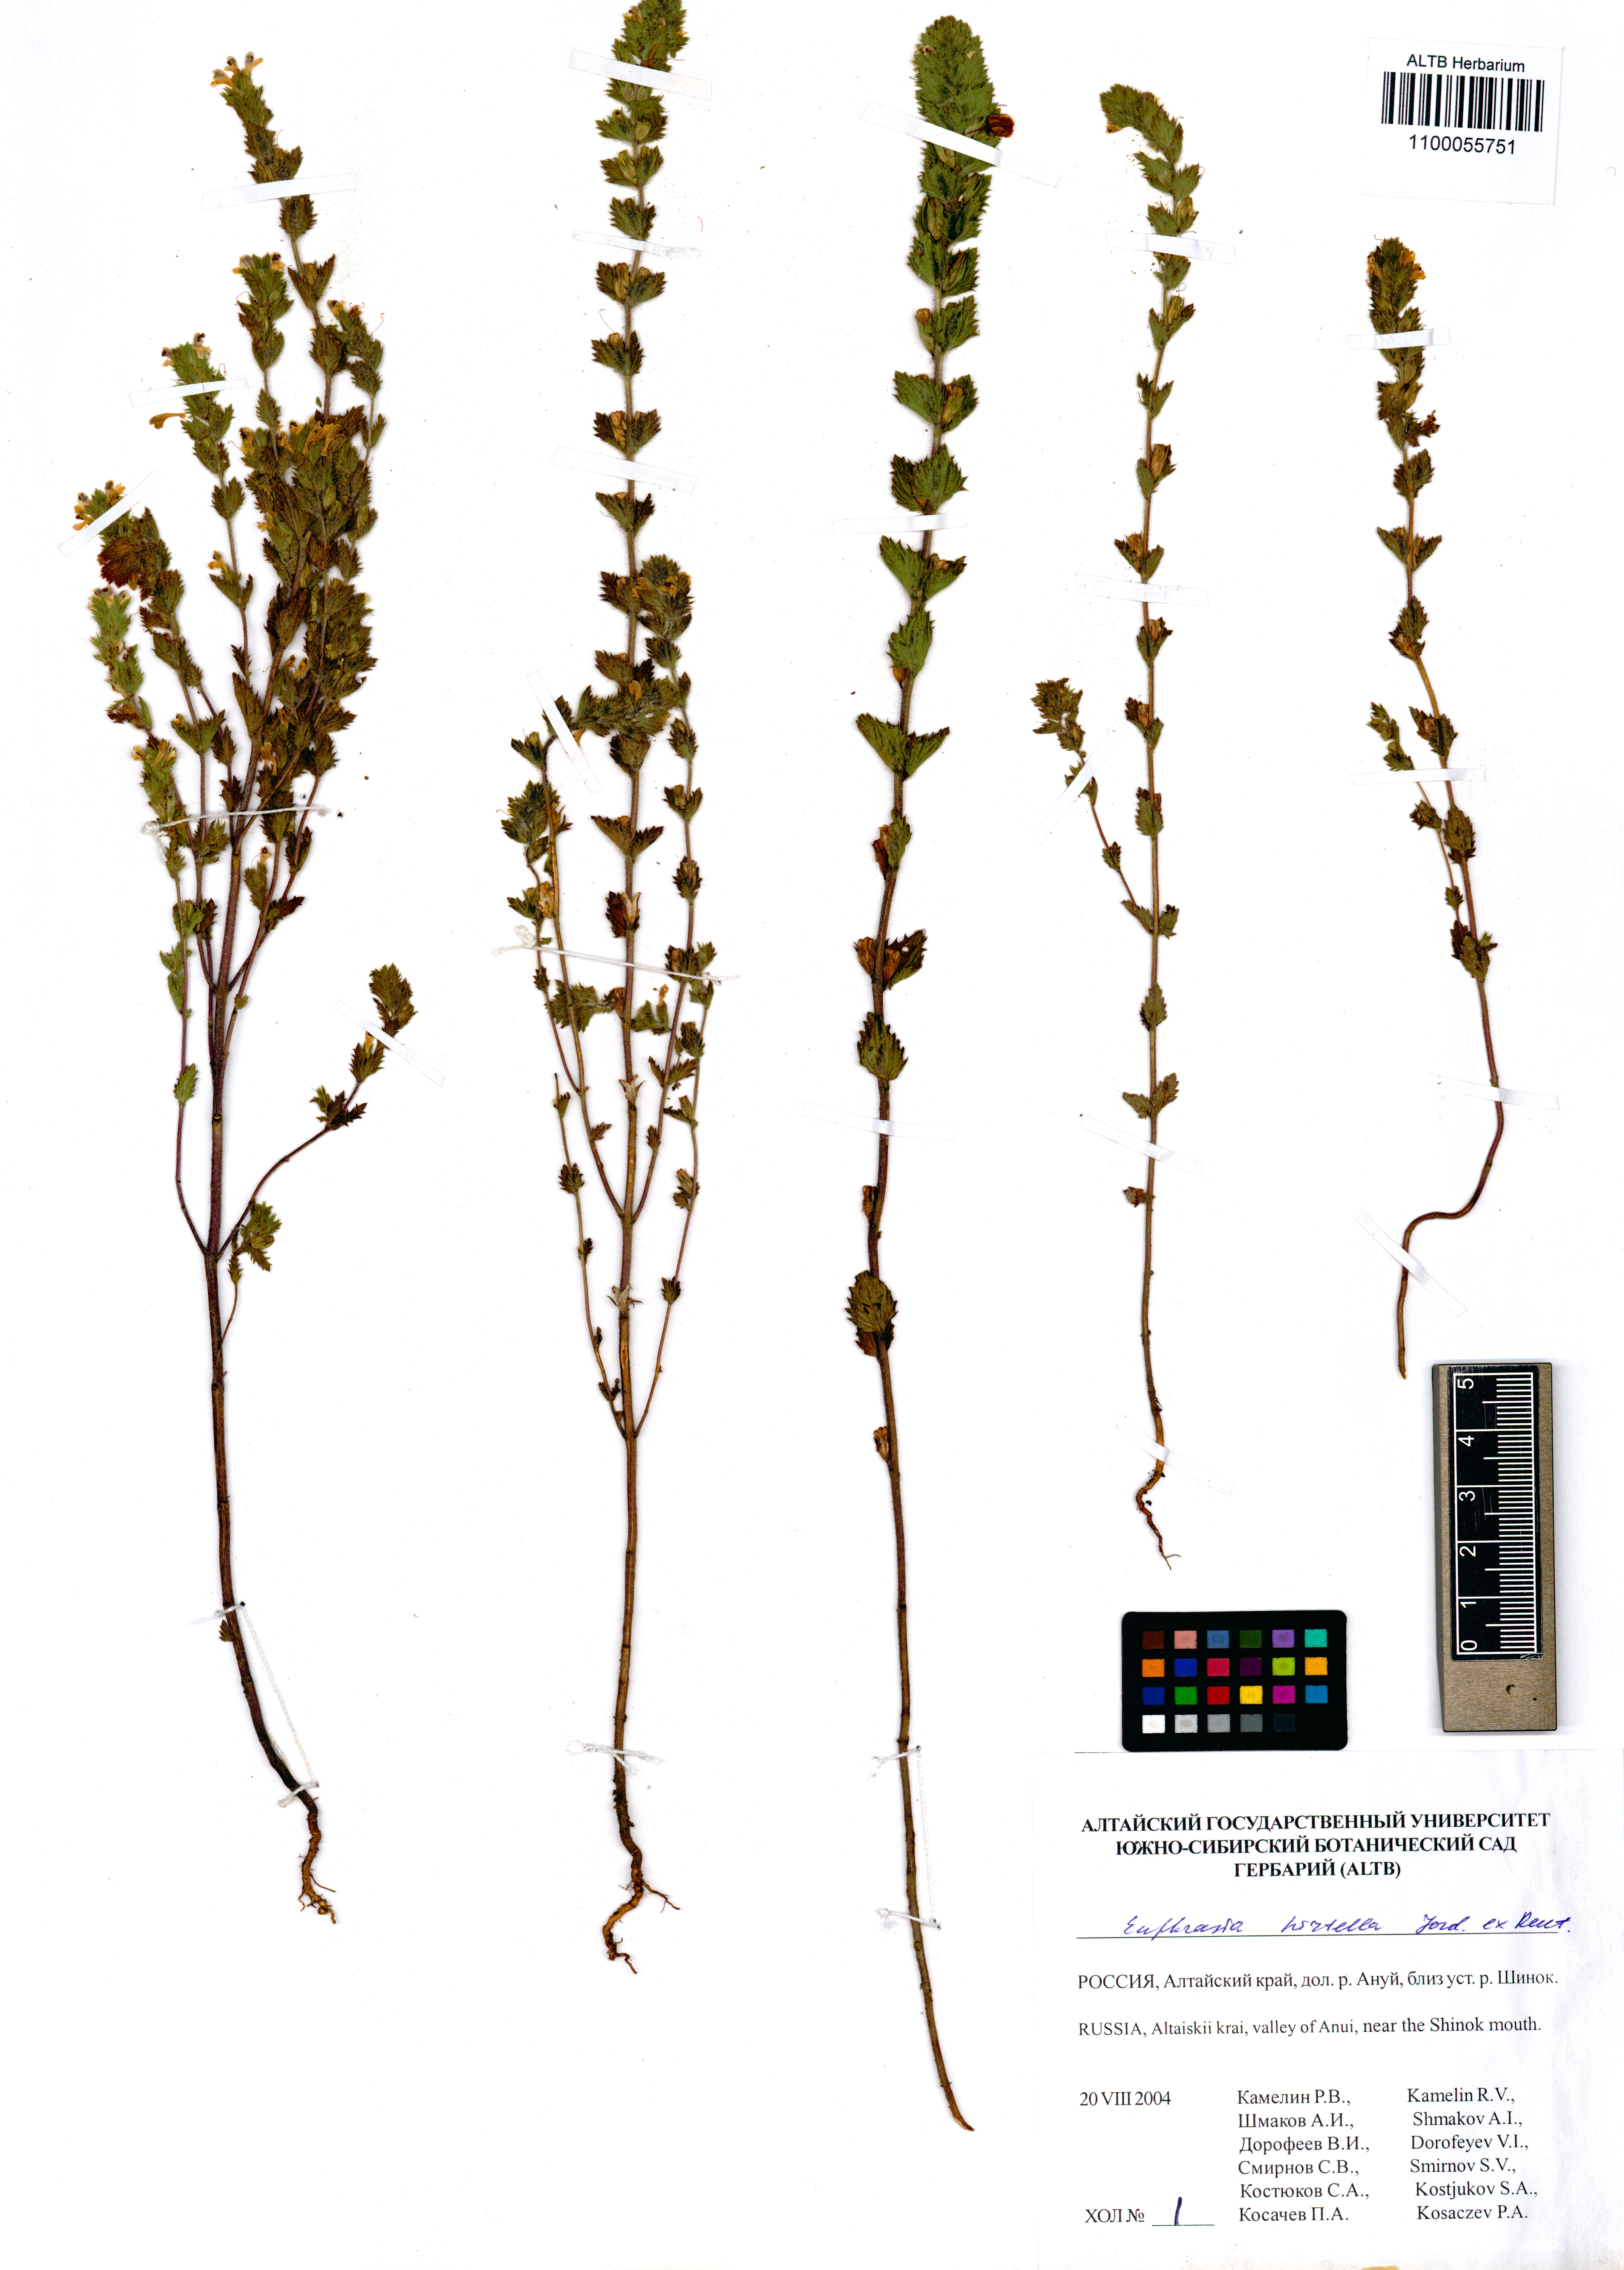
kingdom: Plantae
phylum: Tracheophyta
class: Magnoliopsida
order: Lamiales
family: Orobanchaceae
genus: Euphrasia
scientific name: Euphrasia hirtella
